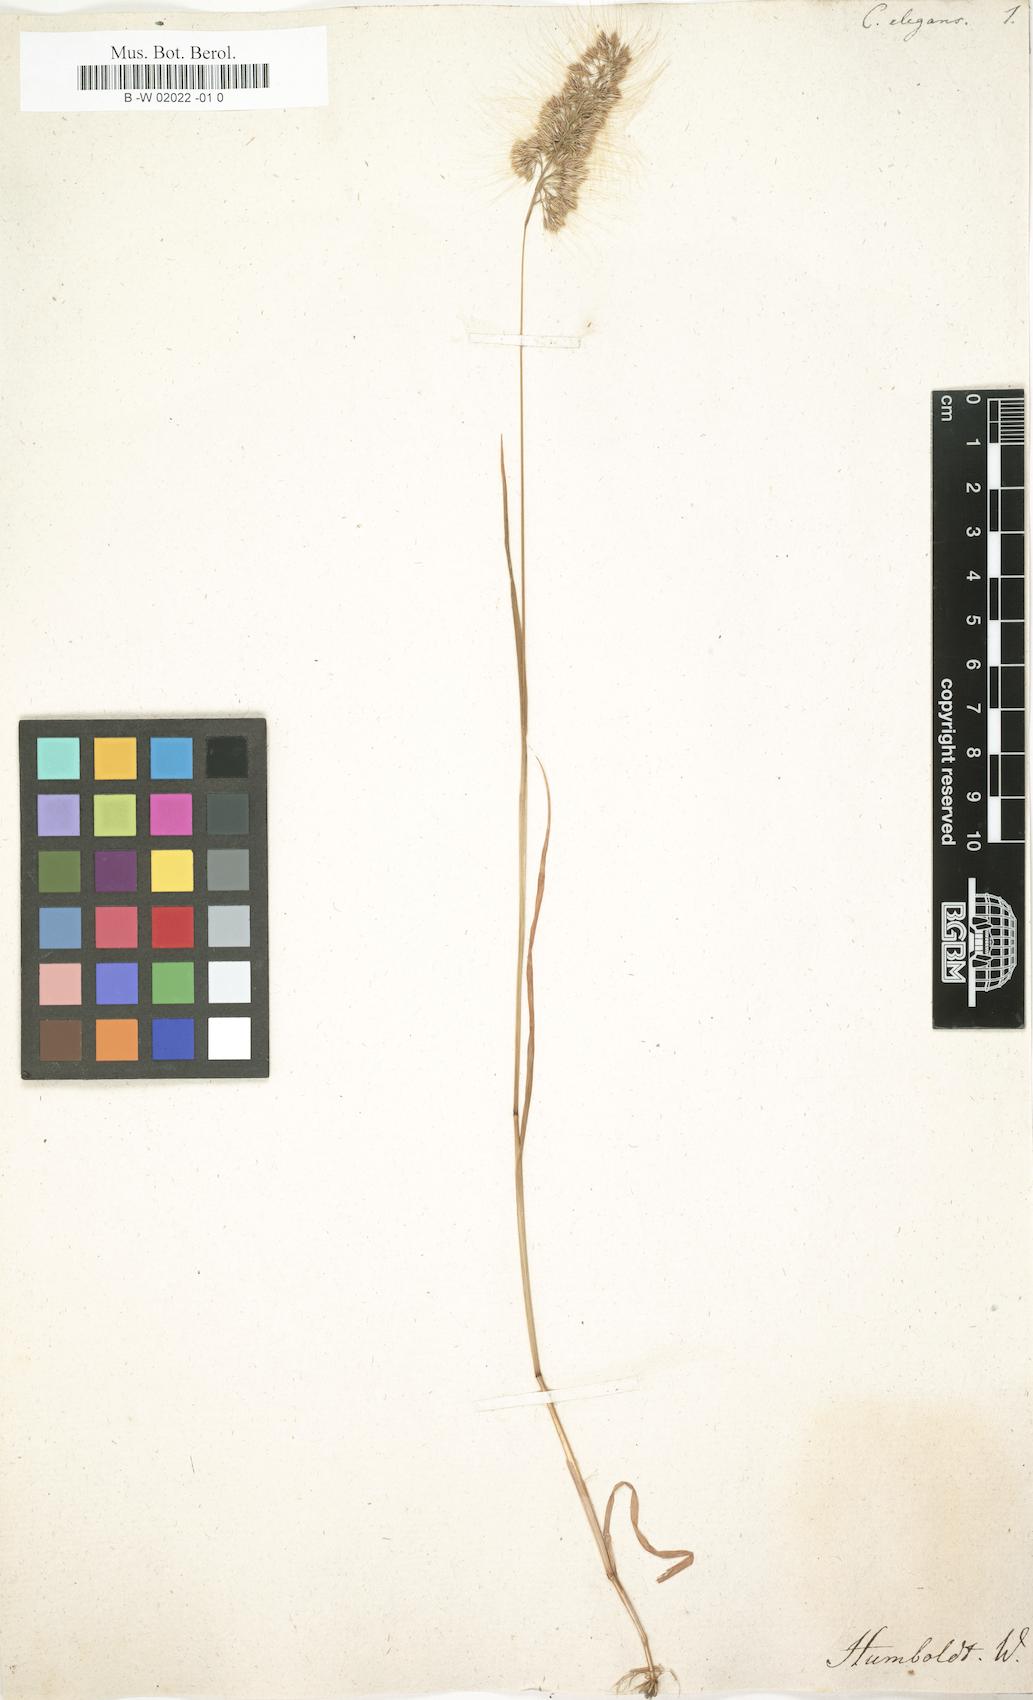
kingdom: Plantae
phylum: Tracheophyta
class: Liliopsida
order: Poales
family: Poaceae
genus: Cynosurus
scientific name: Cynosurus elegans
